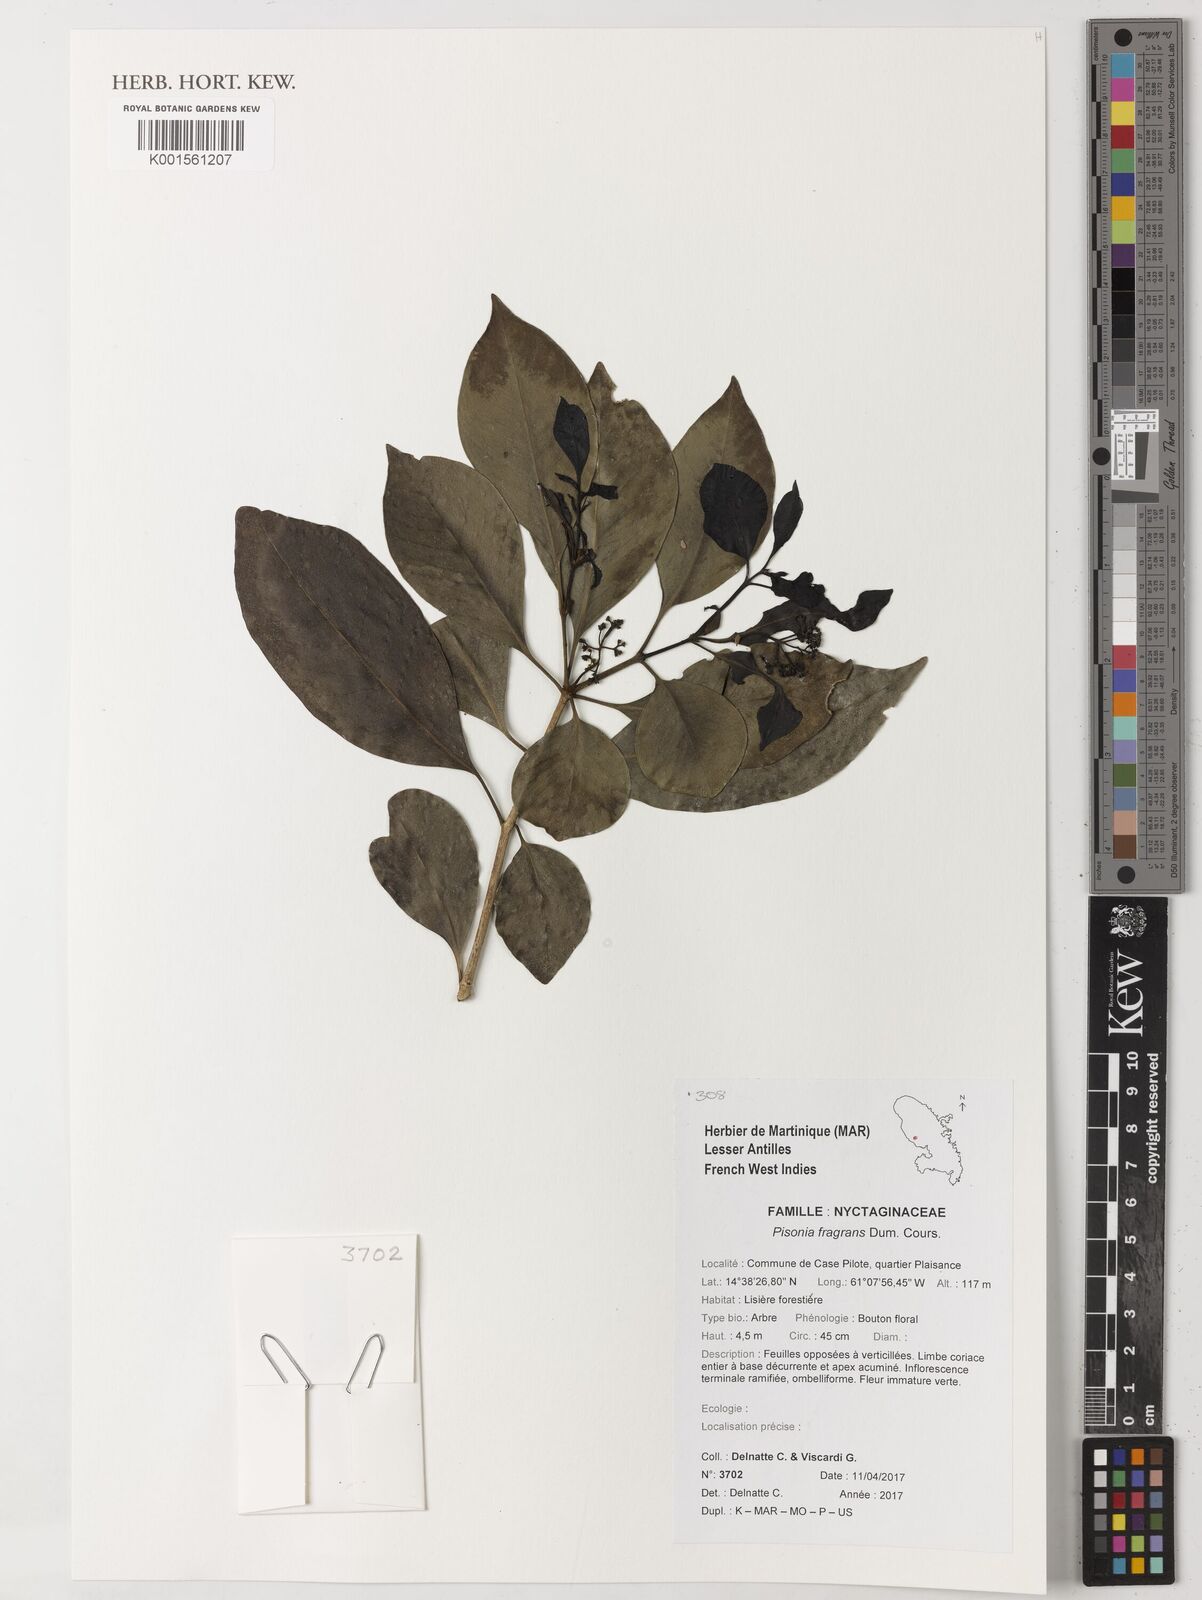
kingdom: Plantae
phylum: Tracheophyta
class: Magnoliopsida
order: Caryophyllales
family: Nyctaginaceae
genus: Guapira
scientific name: Guapira fragrans
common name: Black loblolly tree
